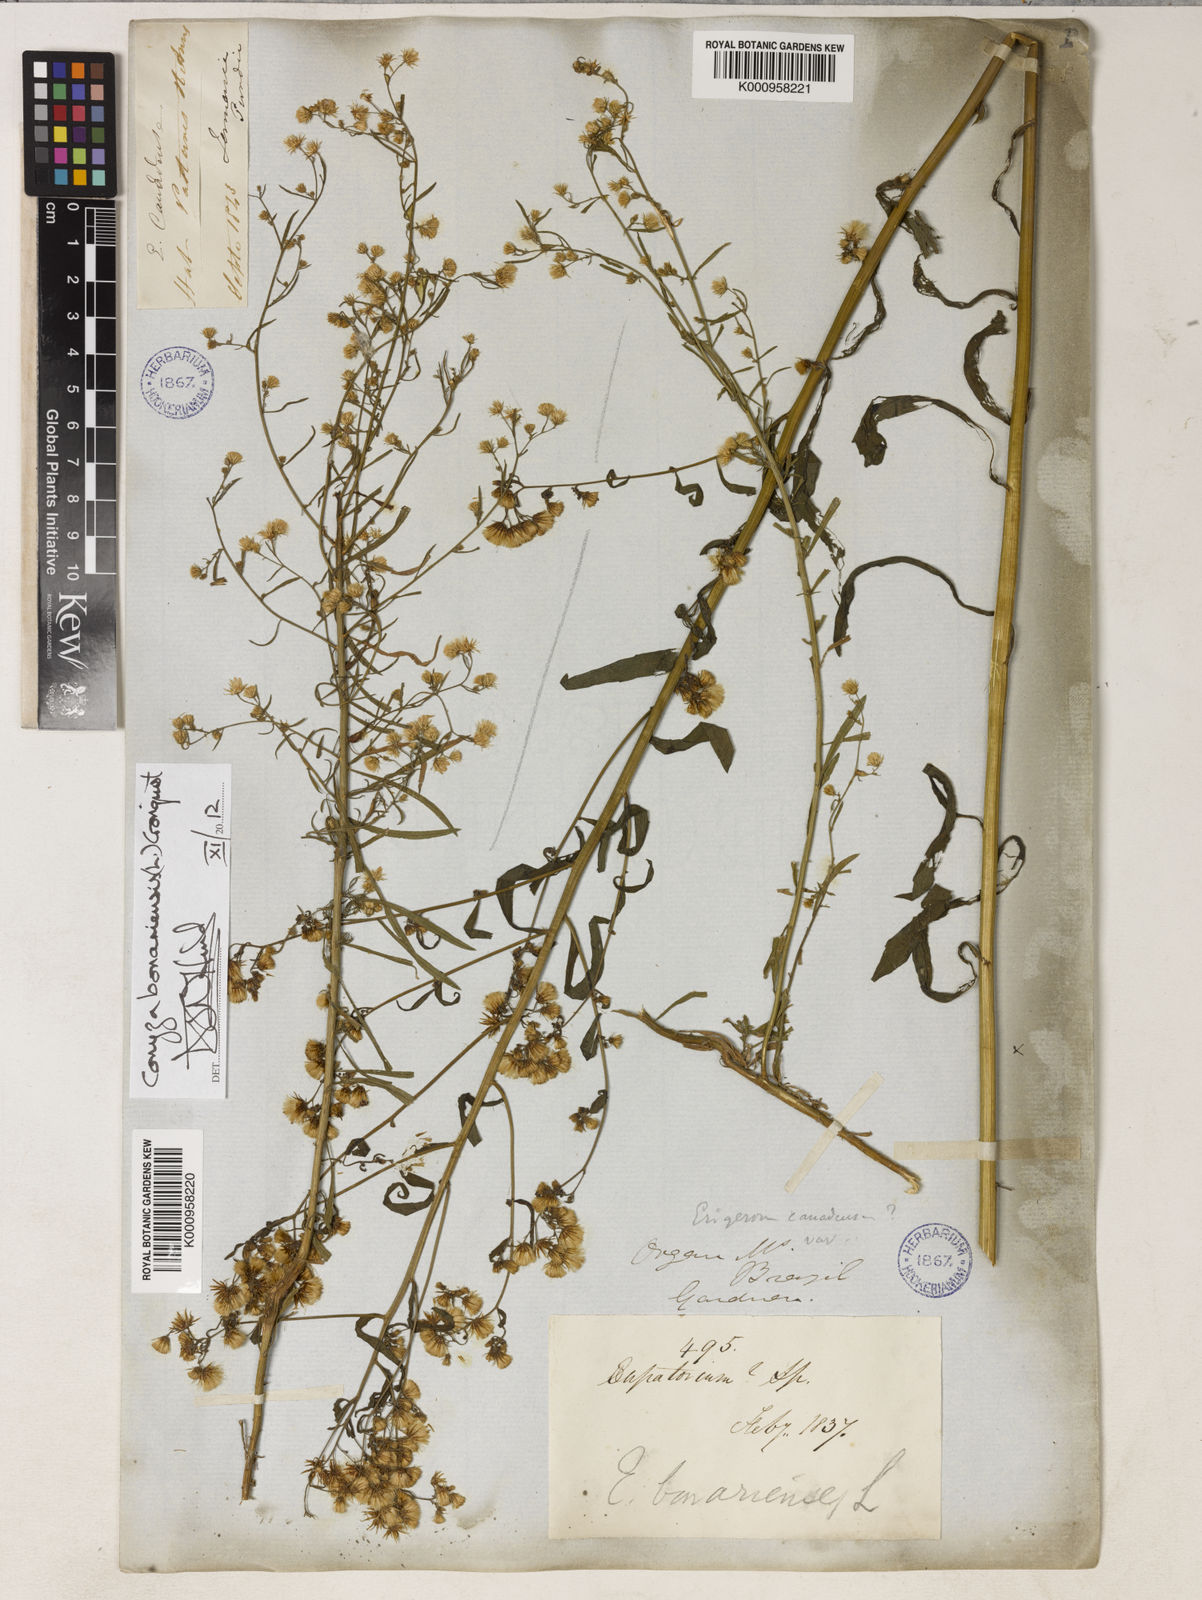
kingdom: Plantae
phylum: Tracheophyta
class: Magnoliopsida
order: Asterales
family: Asteraceae
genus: Erigeron
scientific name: Erigeron bonariensis
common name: Argentine fleabane
